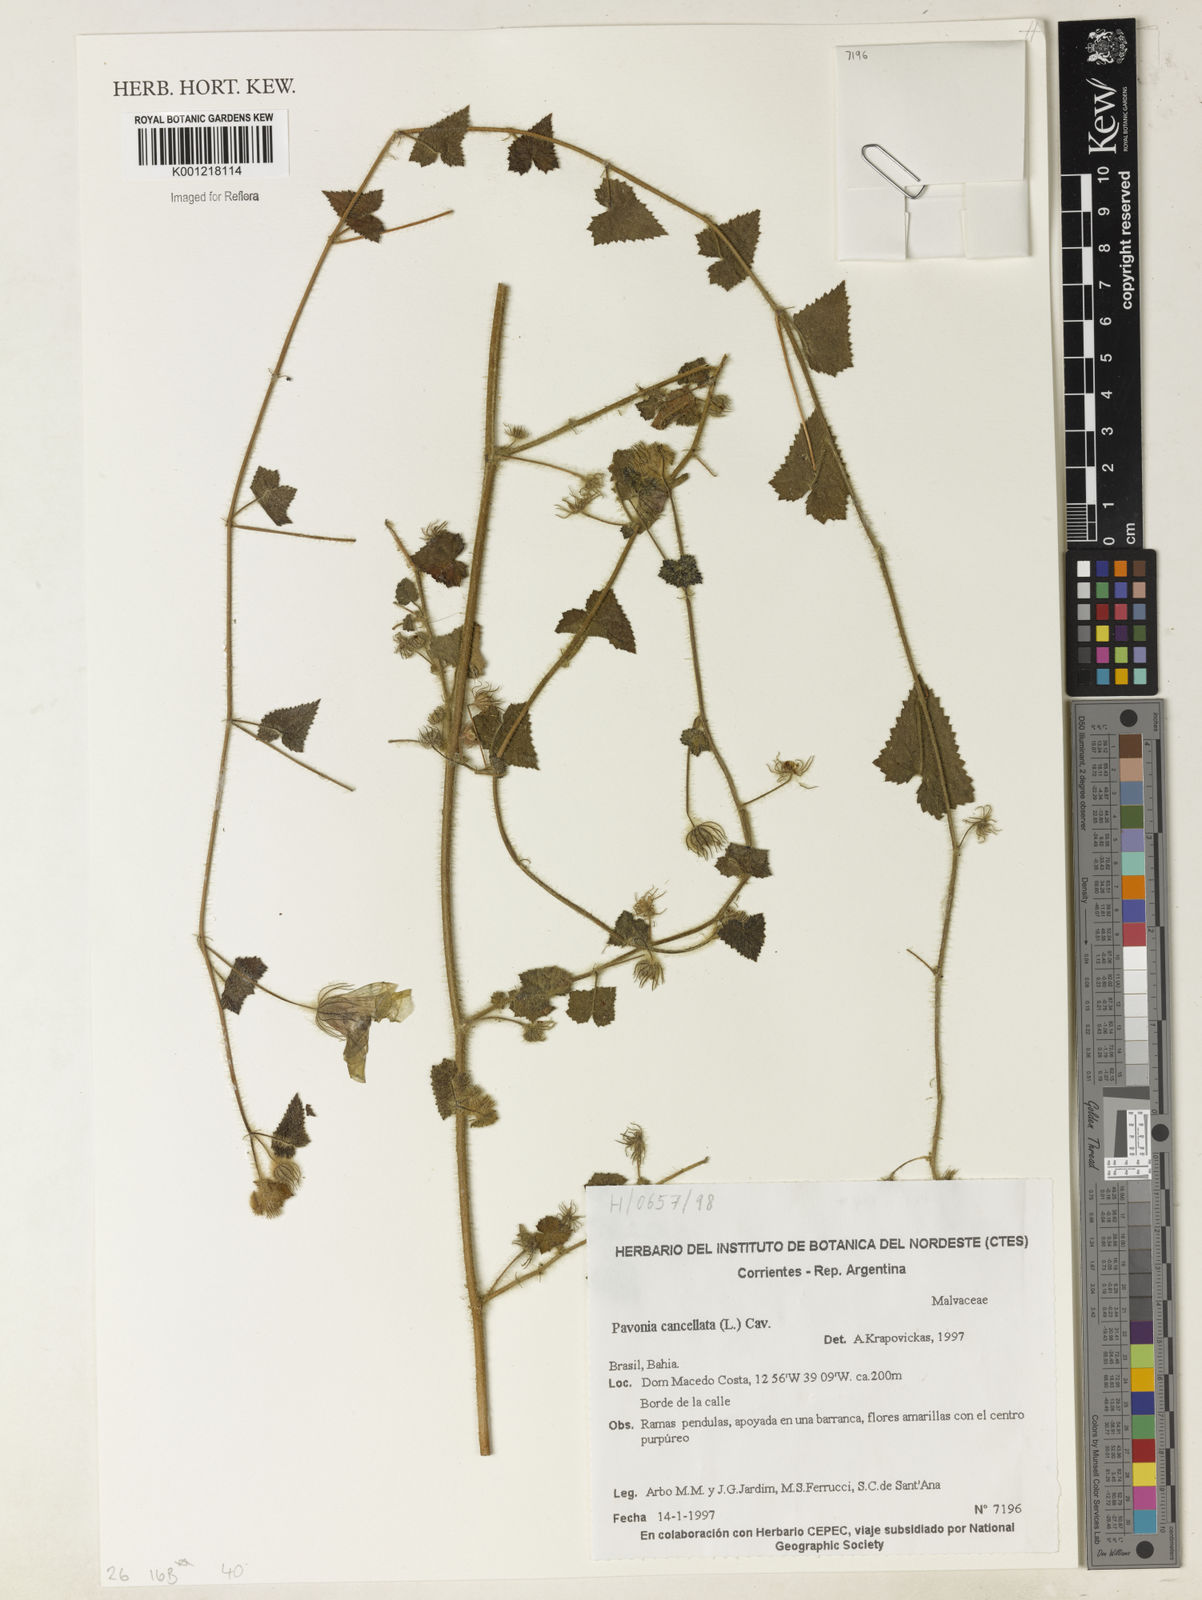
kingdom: Plantae
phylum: Tracheophyta
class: Magnoliopsida
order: Malvales
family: Malvaceae
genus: Pavonia
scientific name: Pavonia cancellata
